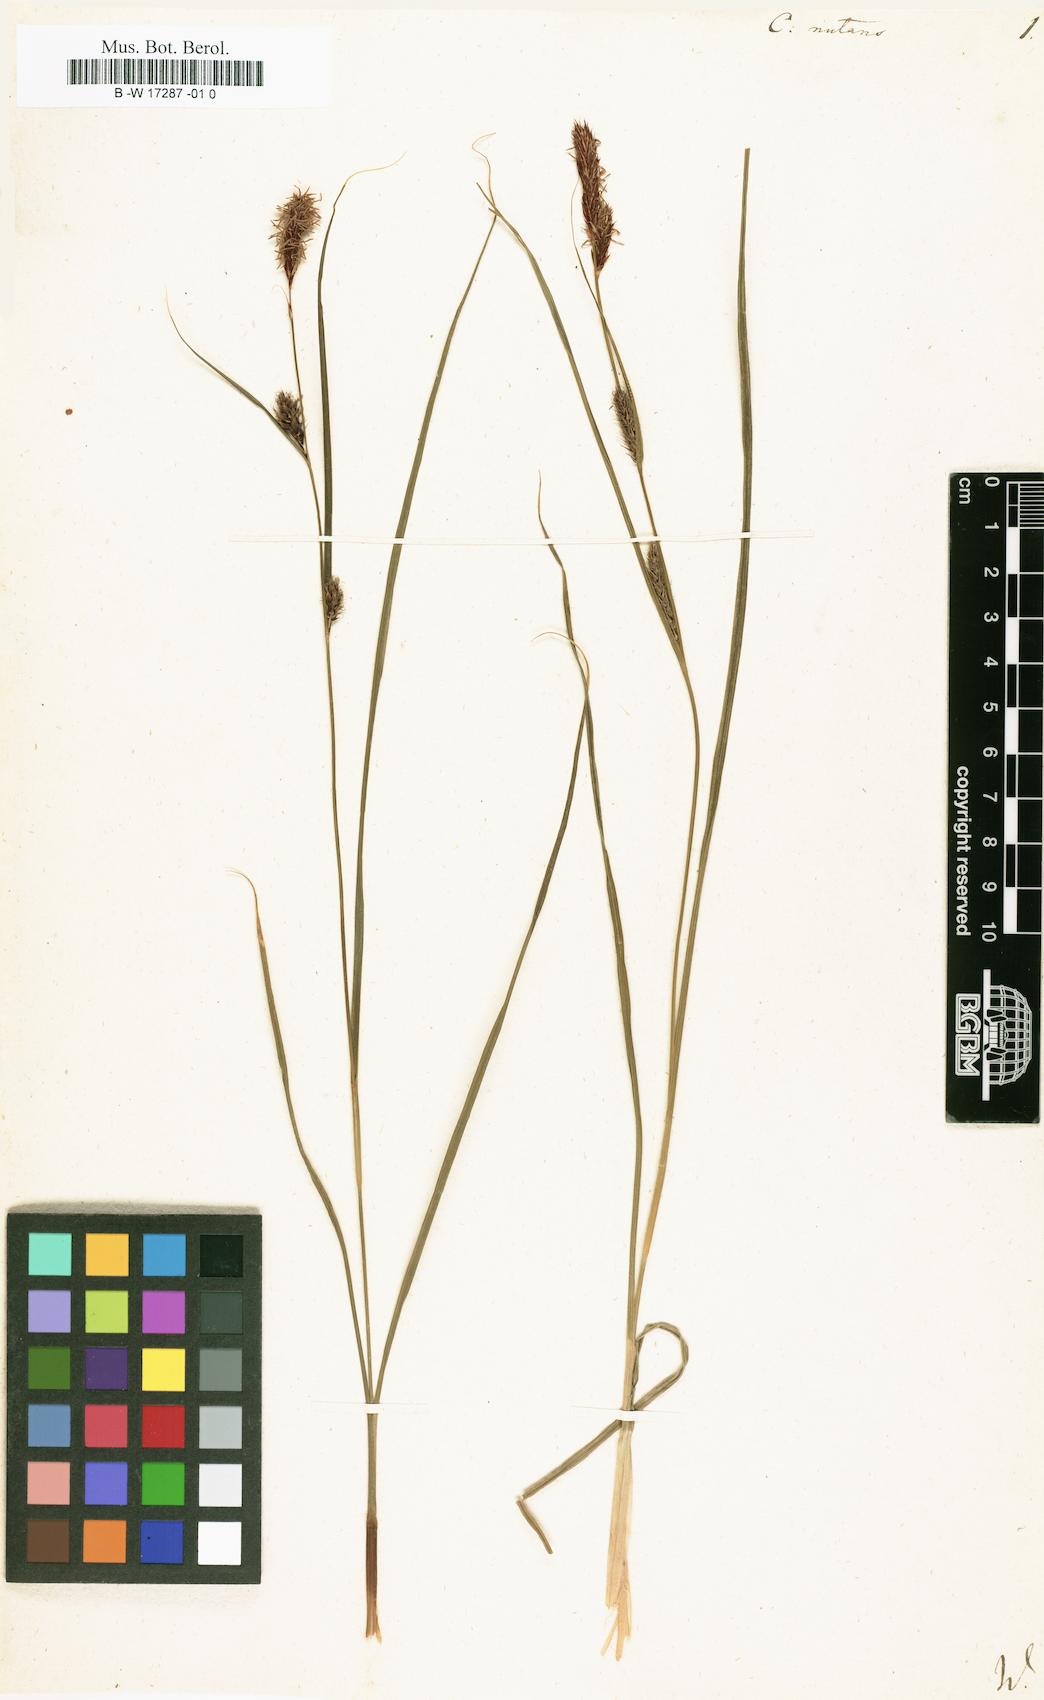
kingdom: Plantae
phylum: Tracheophyta
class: Liliopsida
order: Poales
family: Cyperaceae
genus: Carex
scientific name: Carex nutans
